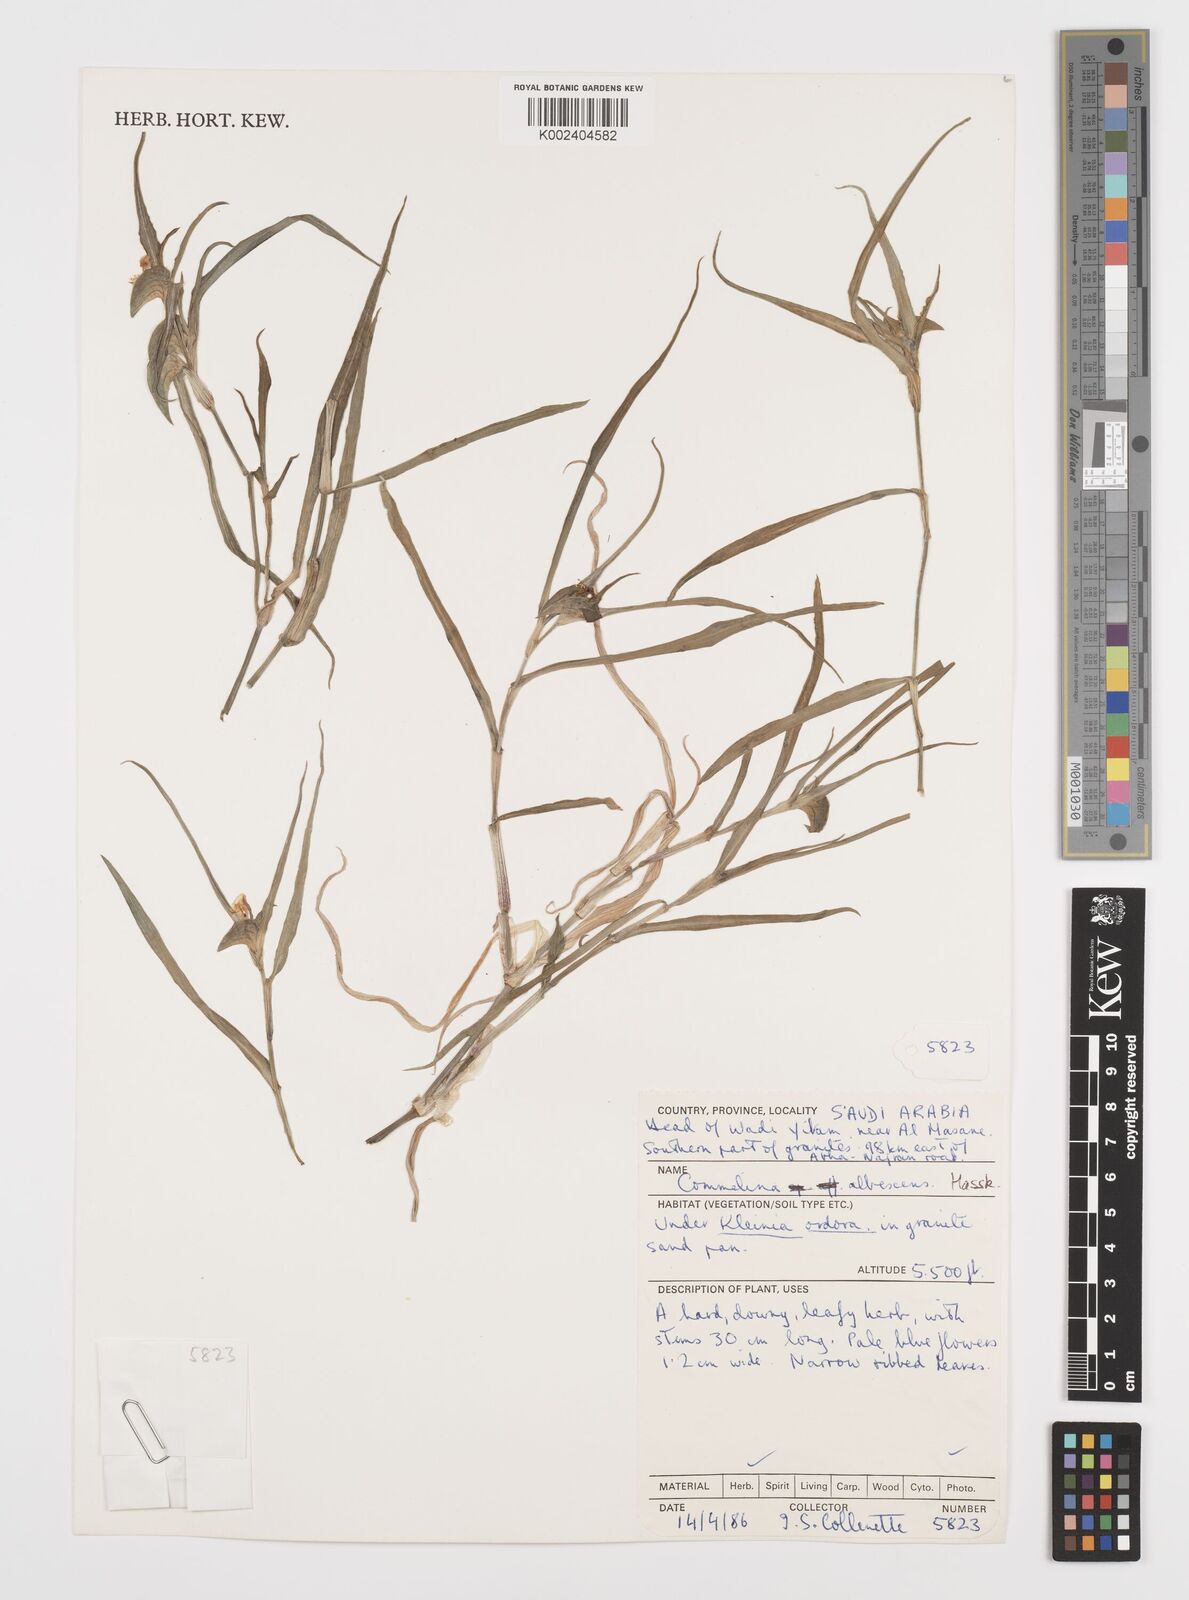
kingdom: Plantae
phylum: Tracheophyta
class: Liliopsida
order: Commelinales
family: Commelinaceae
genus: Commelina
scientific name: Commelina albescens
